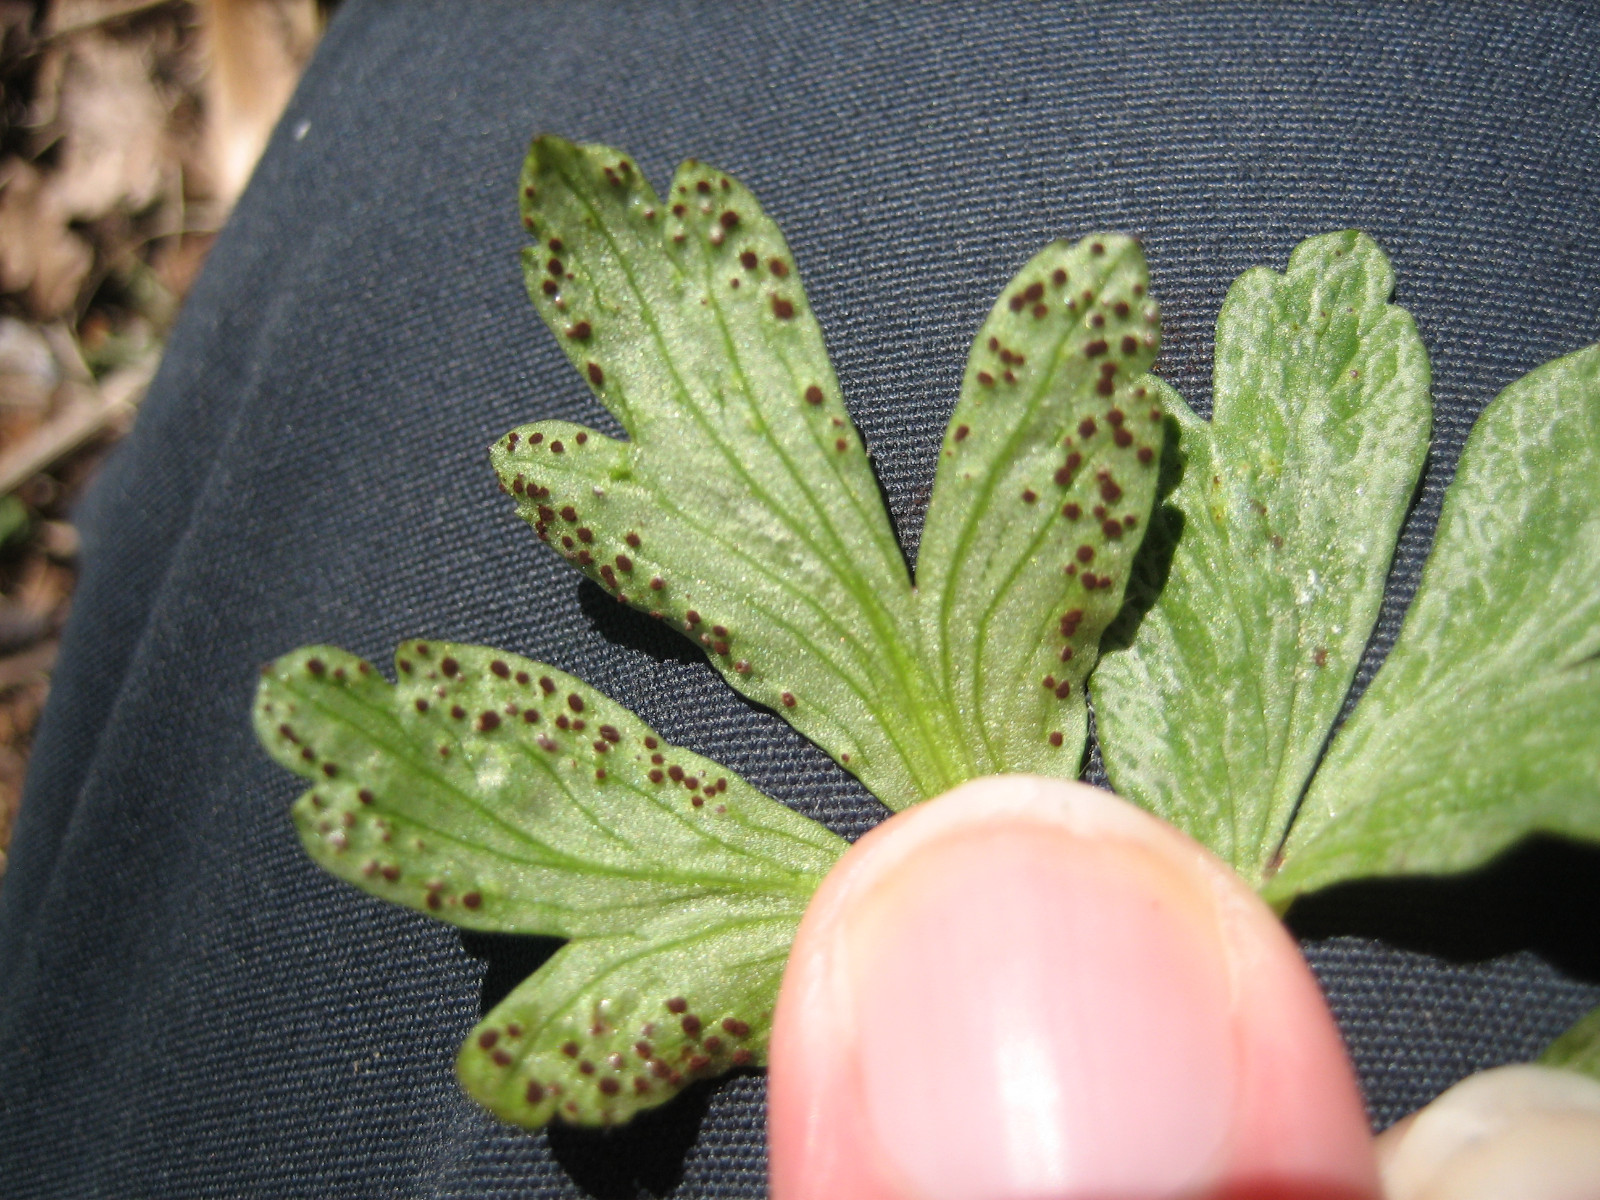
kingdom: Fungi
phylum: Basidiomycota
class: Pucciniomycetes
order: Pucciniales
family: Tranzscheliaceae
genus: Tranzschelia
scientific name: Tranzschelia anemones
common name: anemone-knæksporerust
